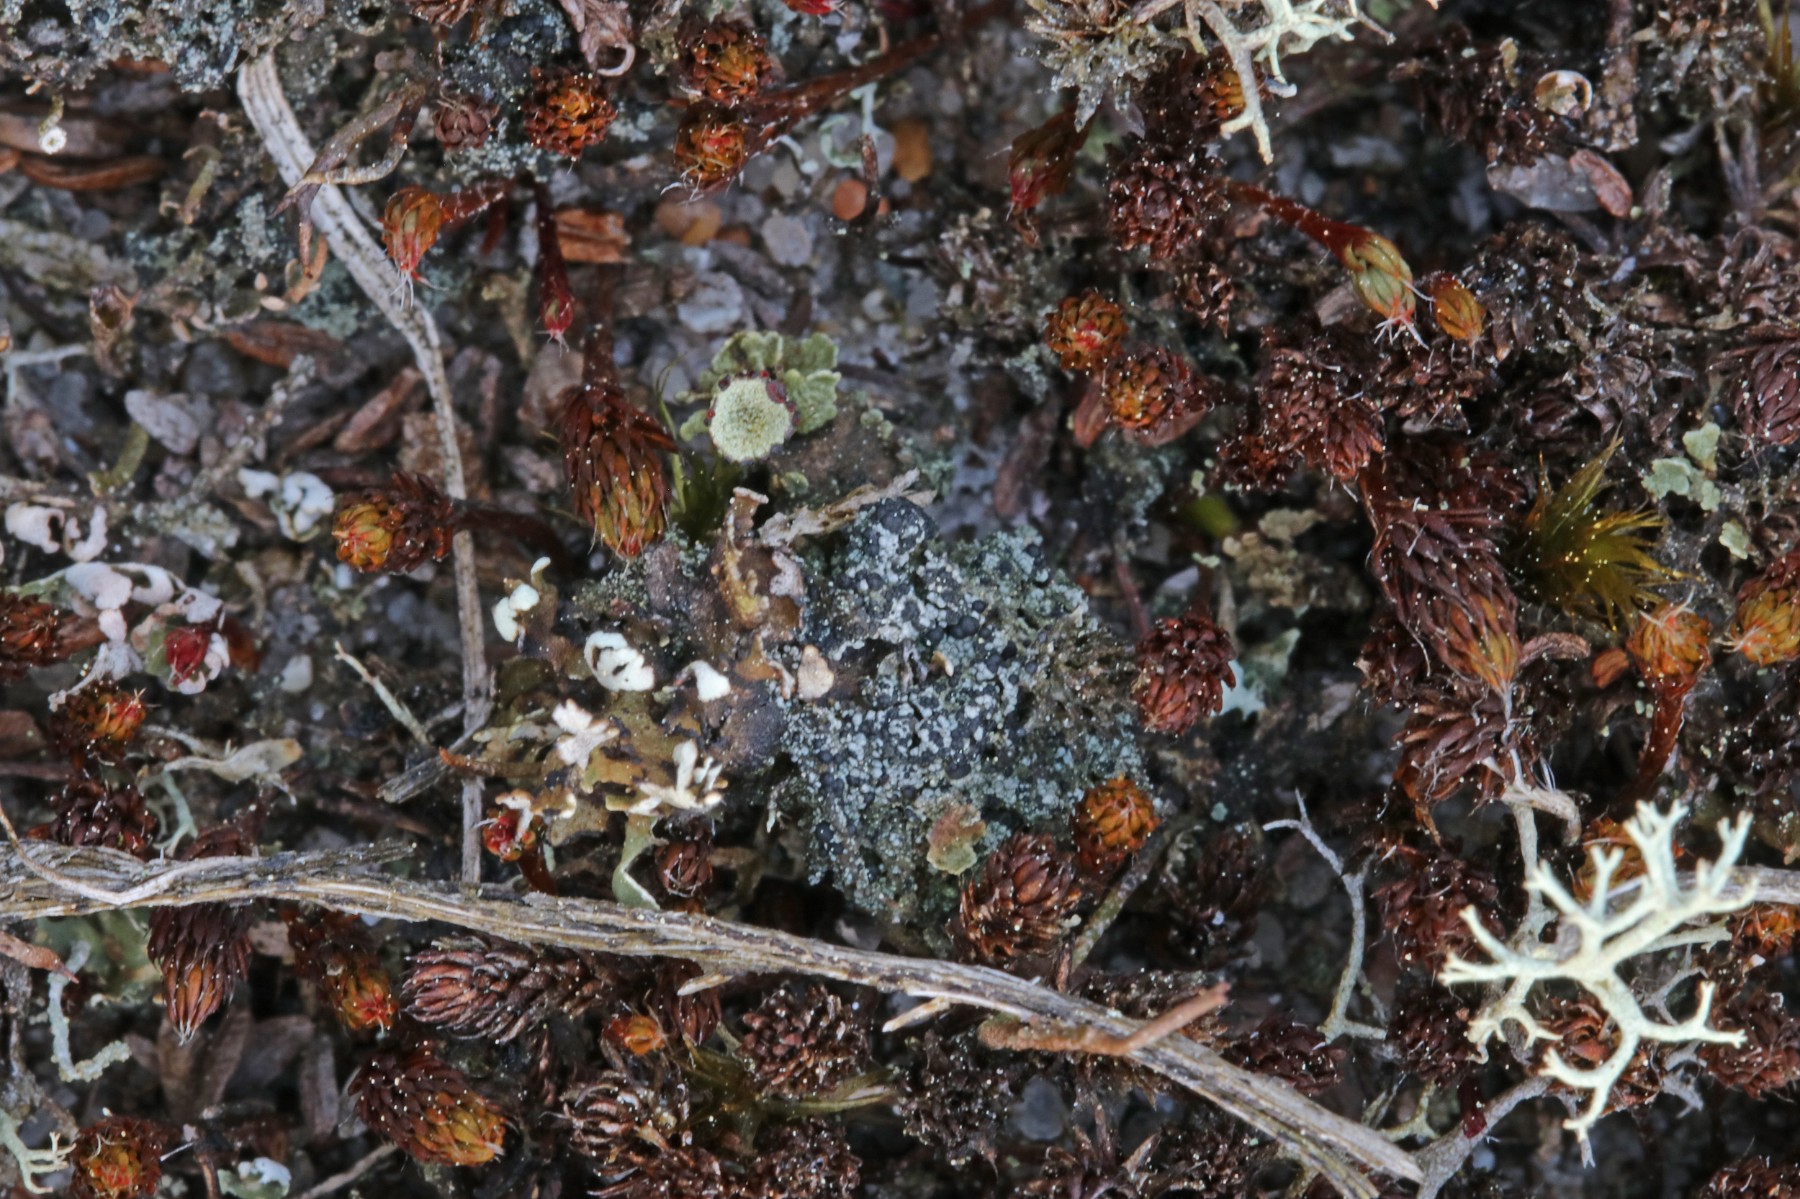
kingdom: Fungi
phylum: Ascomycota
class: Lecanoromycetes
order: Lecanorales
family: Byssolomataceae
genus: Micarea
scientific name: Micarea lignaria
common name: tørve-knaplav
